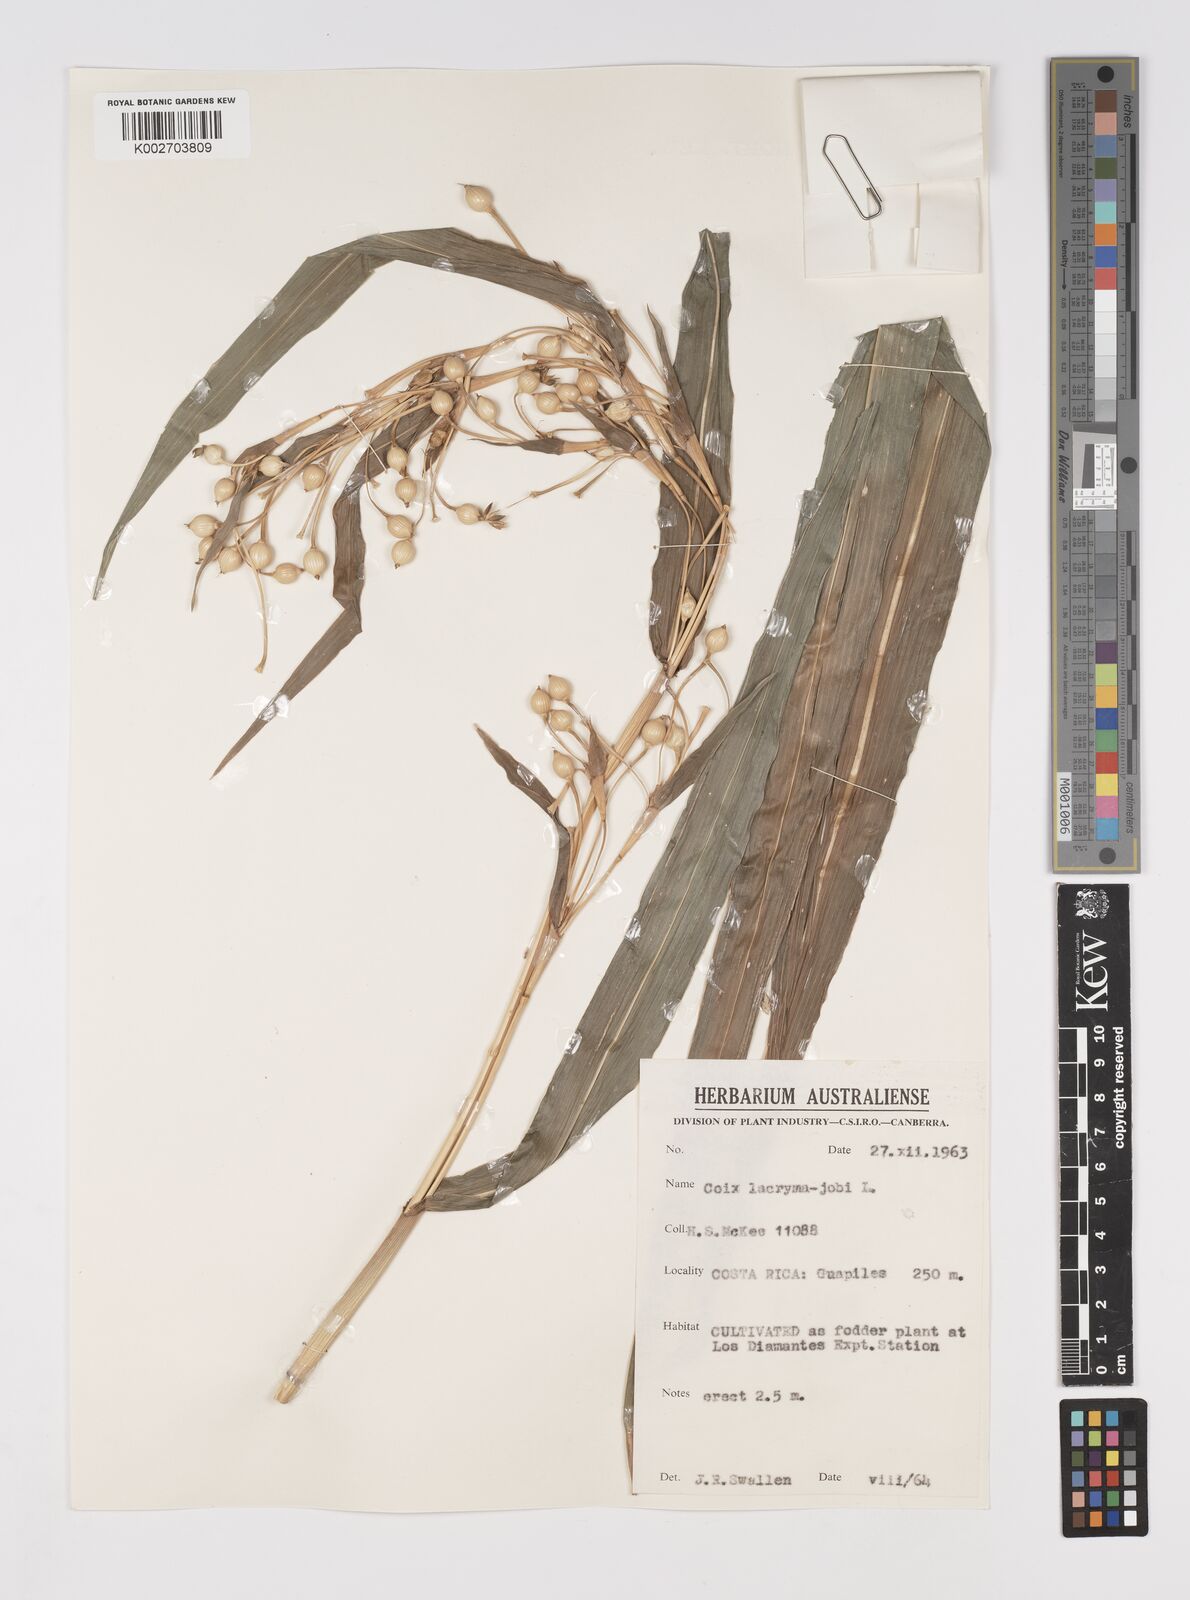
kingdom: Plantae
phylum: Tracheophyta
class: Liliopsida
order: Poales
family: Poaceae
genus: Coix
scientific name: Coix lacryma-jobi
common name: Job's tears
